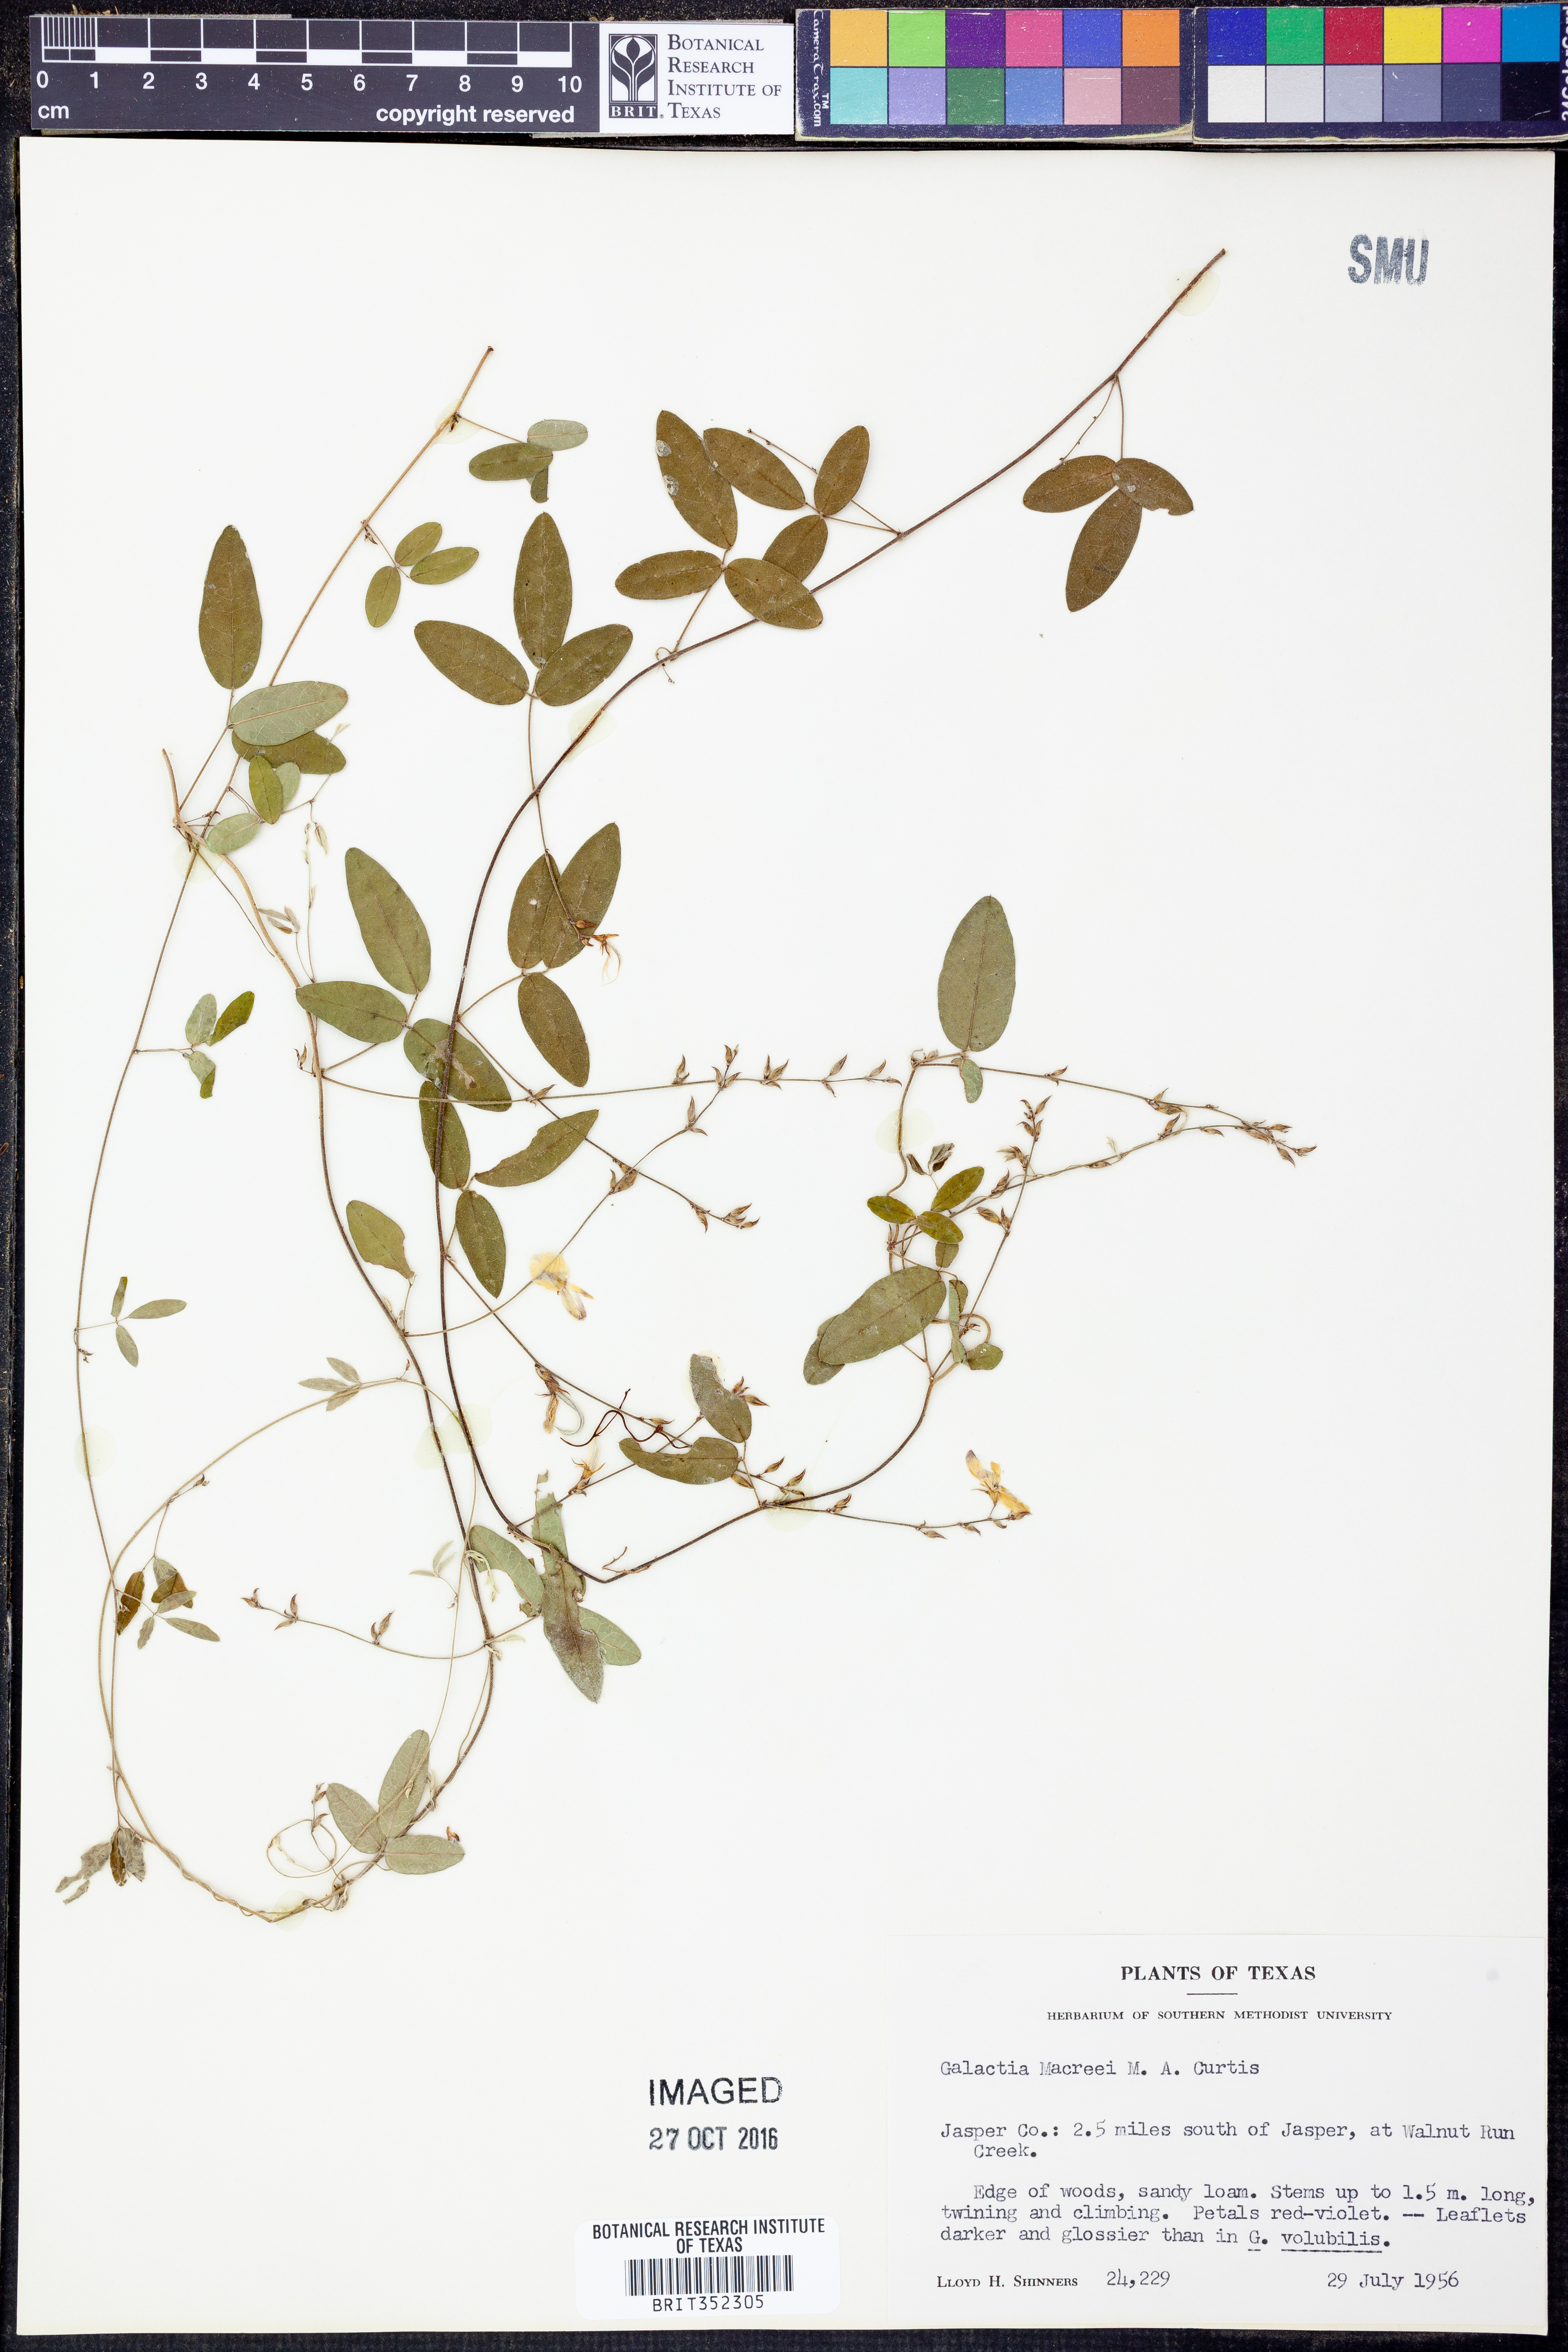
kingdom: Plantae
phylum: Tracheophyta
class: Magnoliopsida
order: Fabales
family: Fabaceae
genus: Galactia
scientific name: Galactia volubilis
